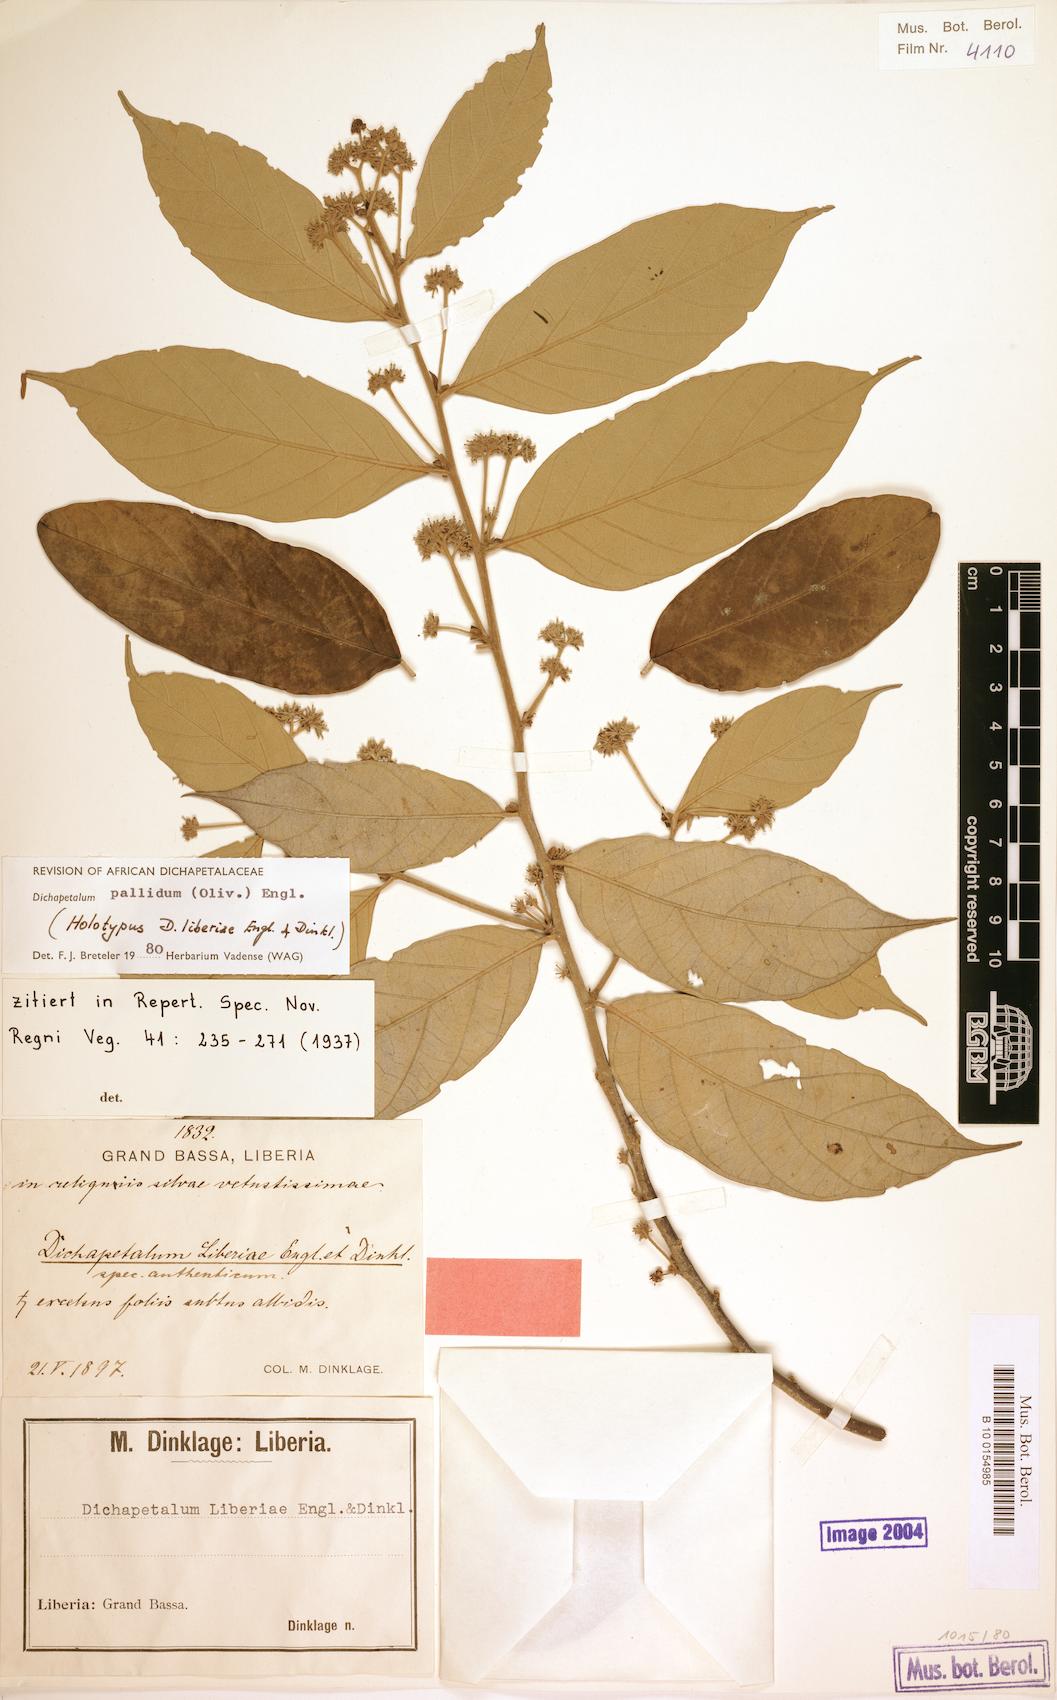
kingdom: Plantae
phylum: Tracheophyta
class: Magnoliopsida
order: Malpighiales
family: Dichapetalaceae
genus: Dichapetalum
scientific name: Dichapetalum pallidum
